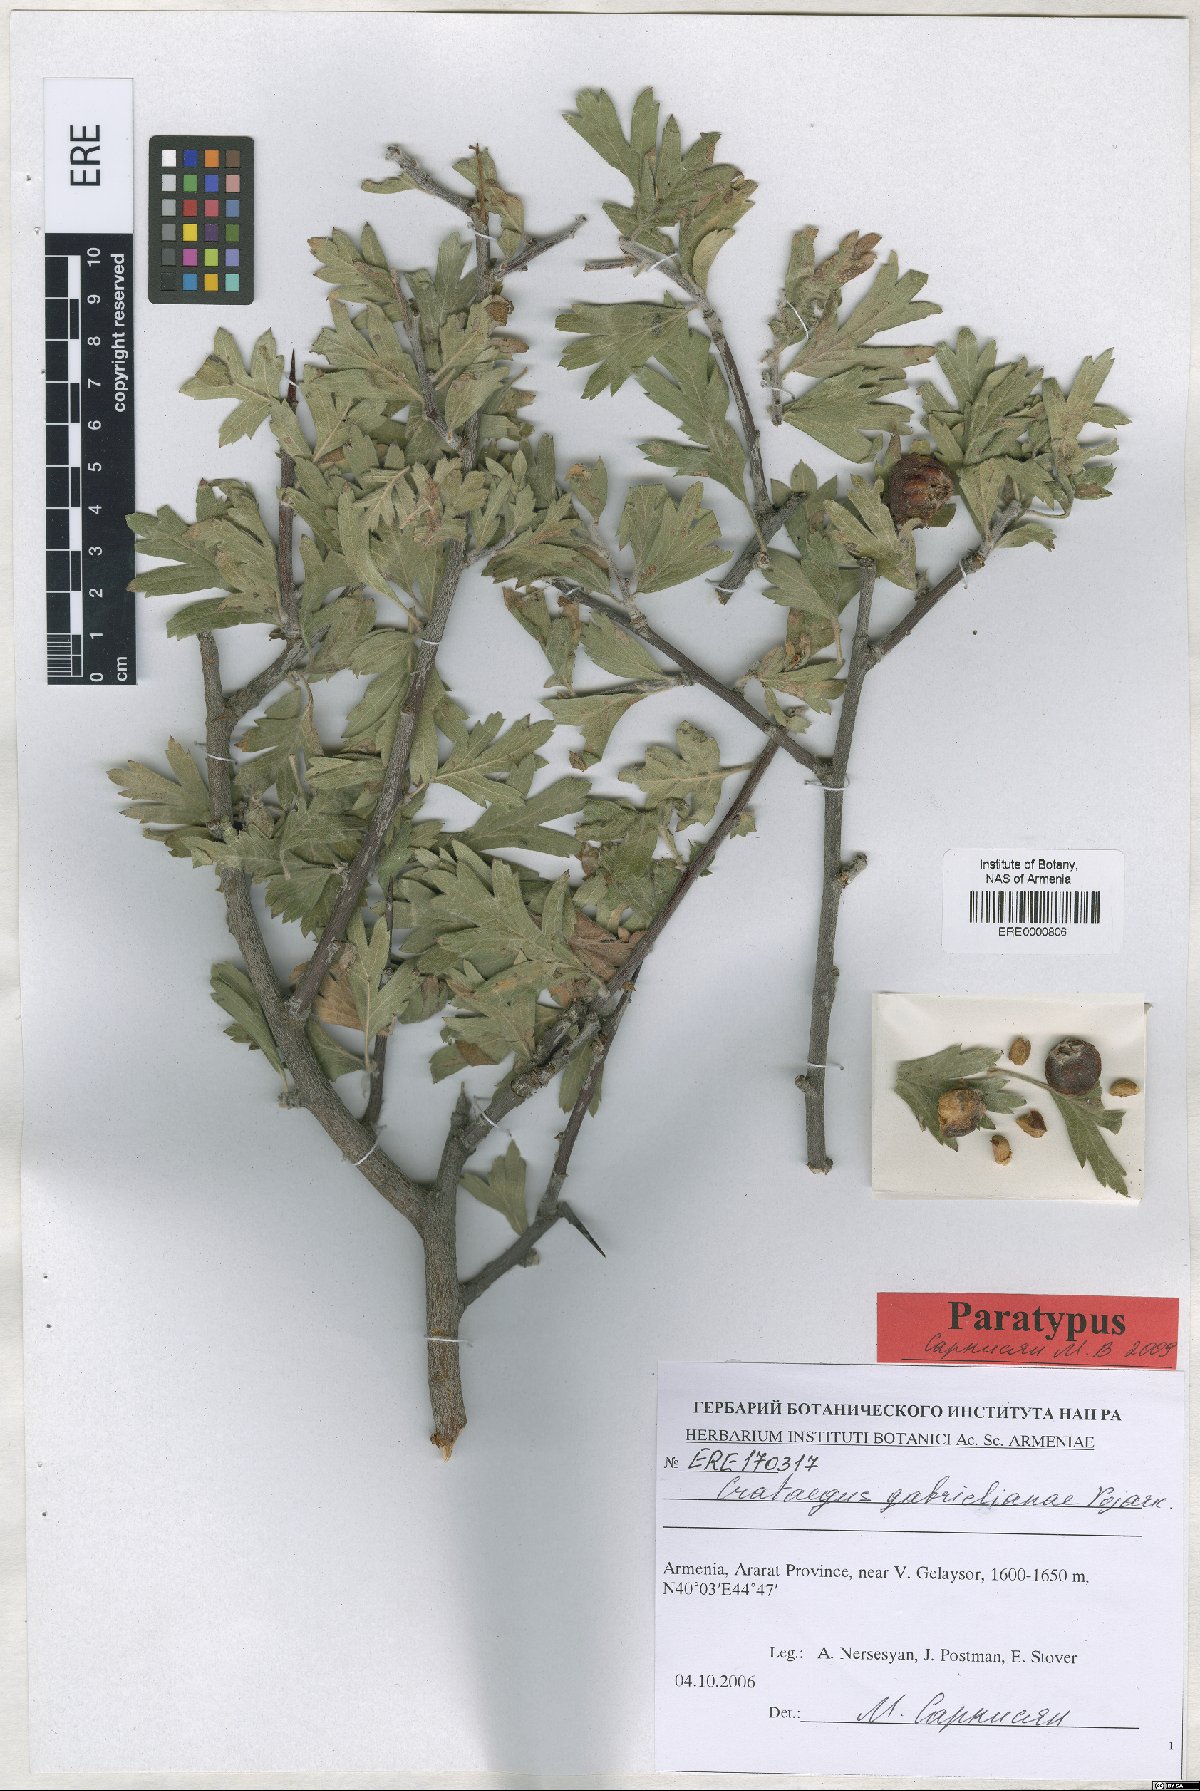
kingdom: Plantae
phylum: Tracheophyta
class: Magnoliopsida
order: Rosales
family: Rosaceae
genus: Crataegus
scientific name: Crataegus
